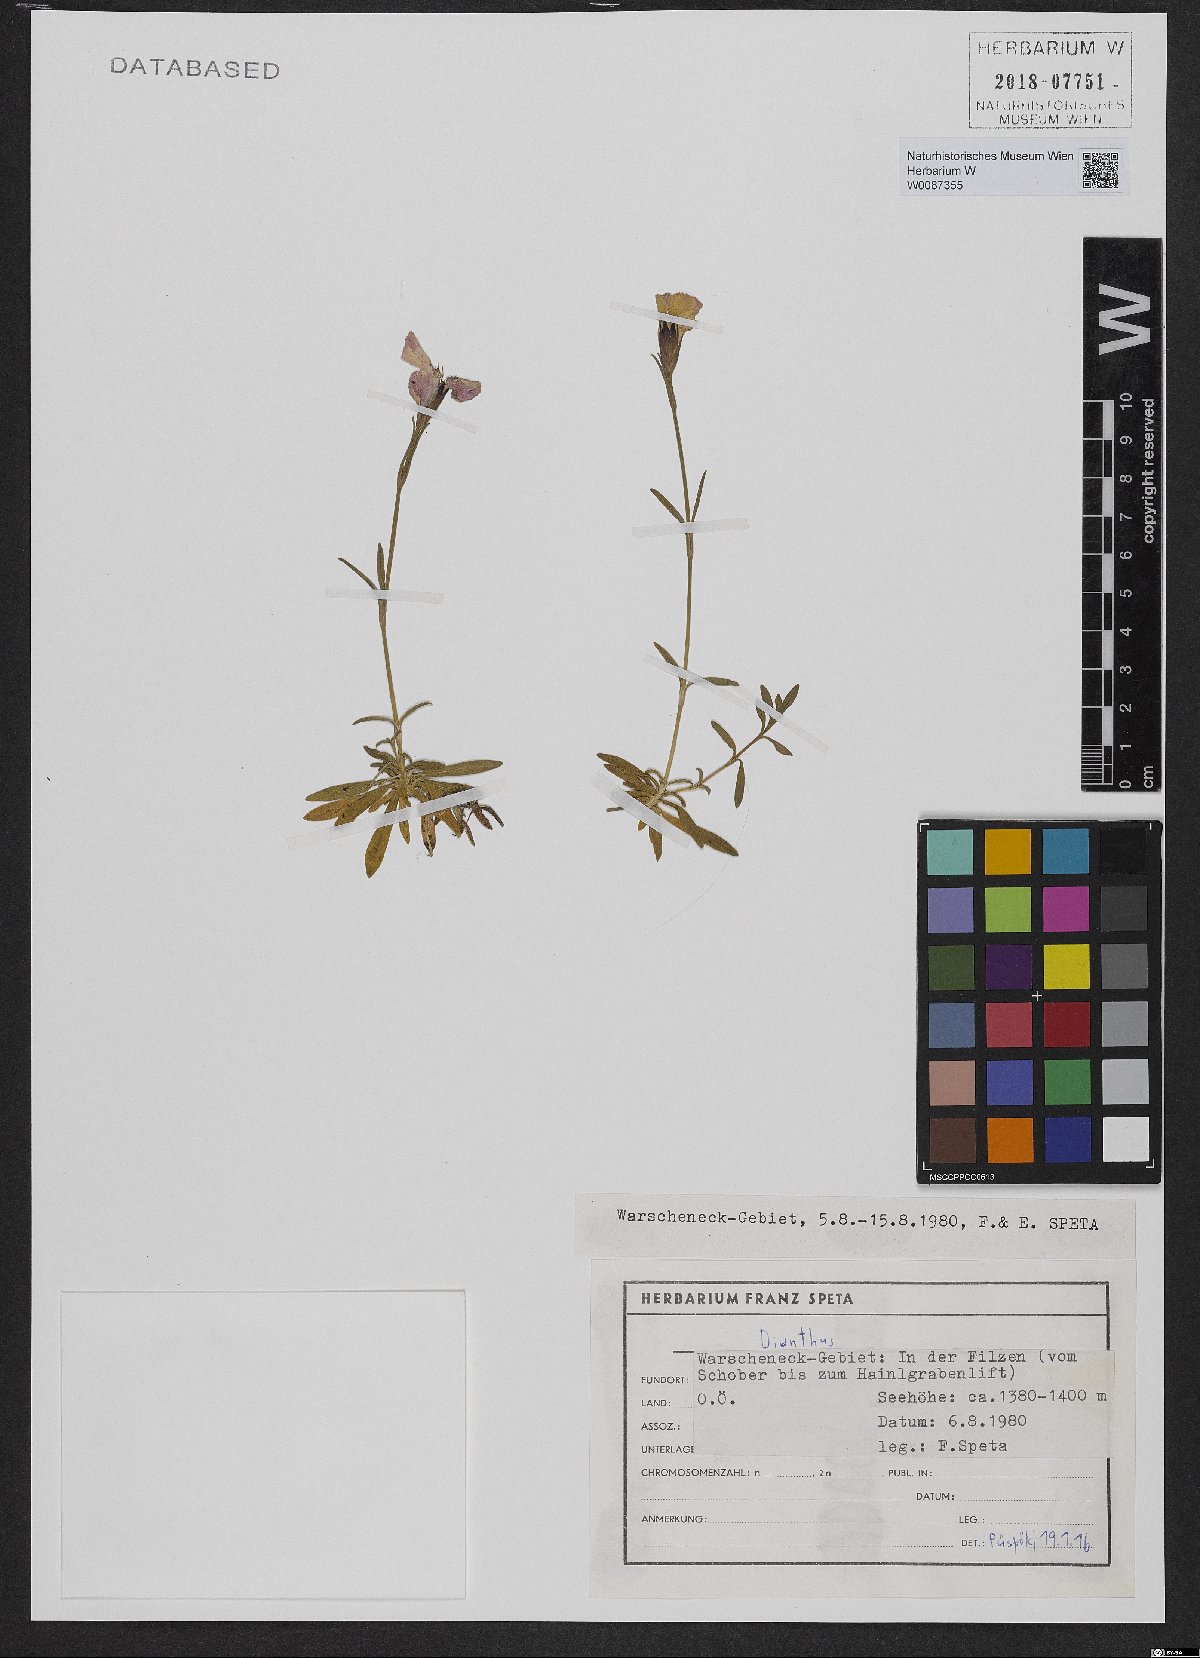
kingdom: Plantae
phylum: Tracheophyta
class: Magnoliopsida
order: Caryophyllales
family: Caryophyllaceae
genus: Dianthus
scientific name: Dianthus alpinus
